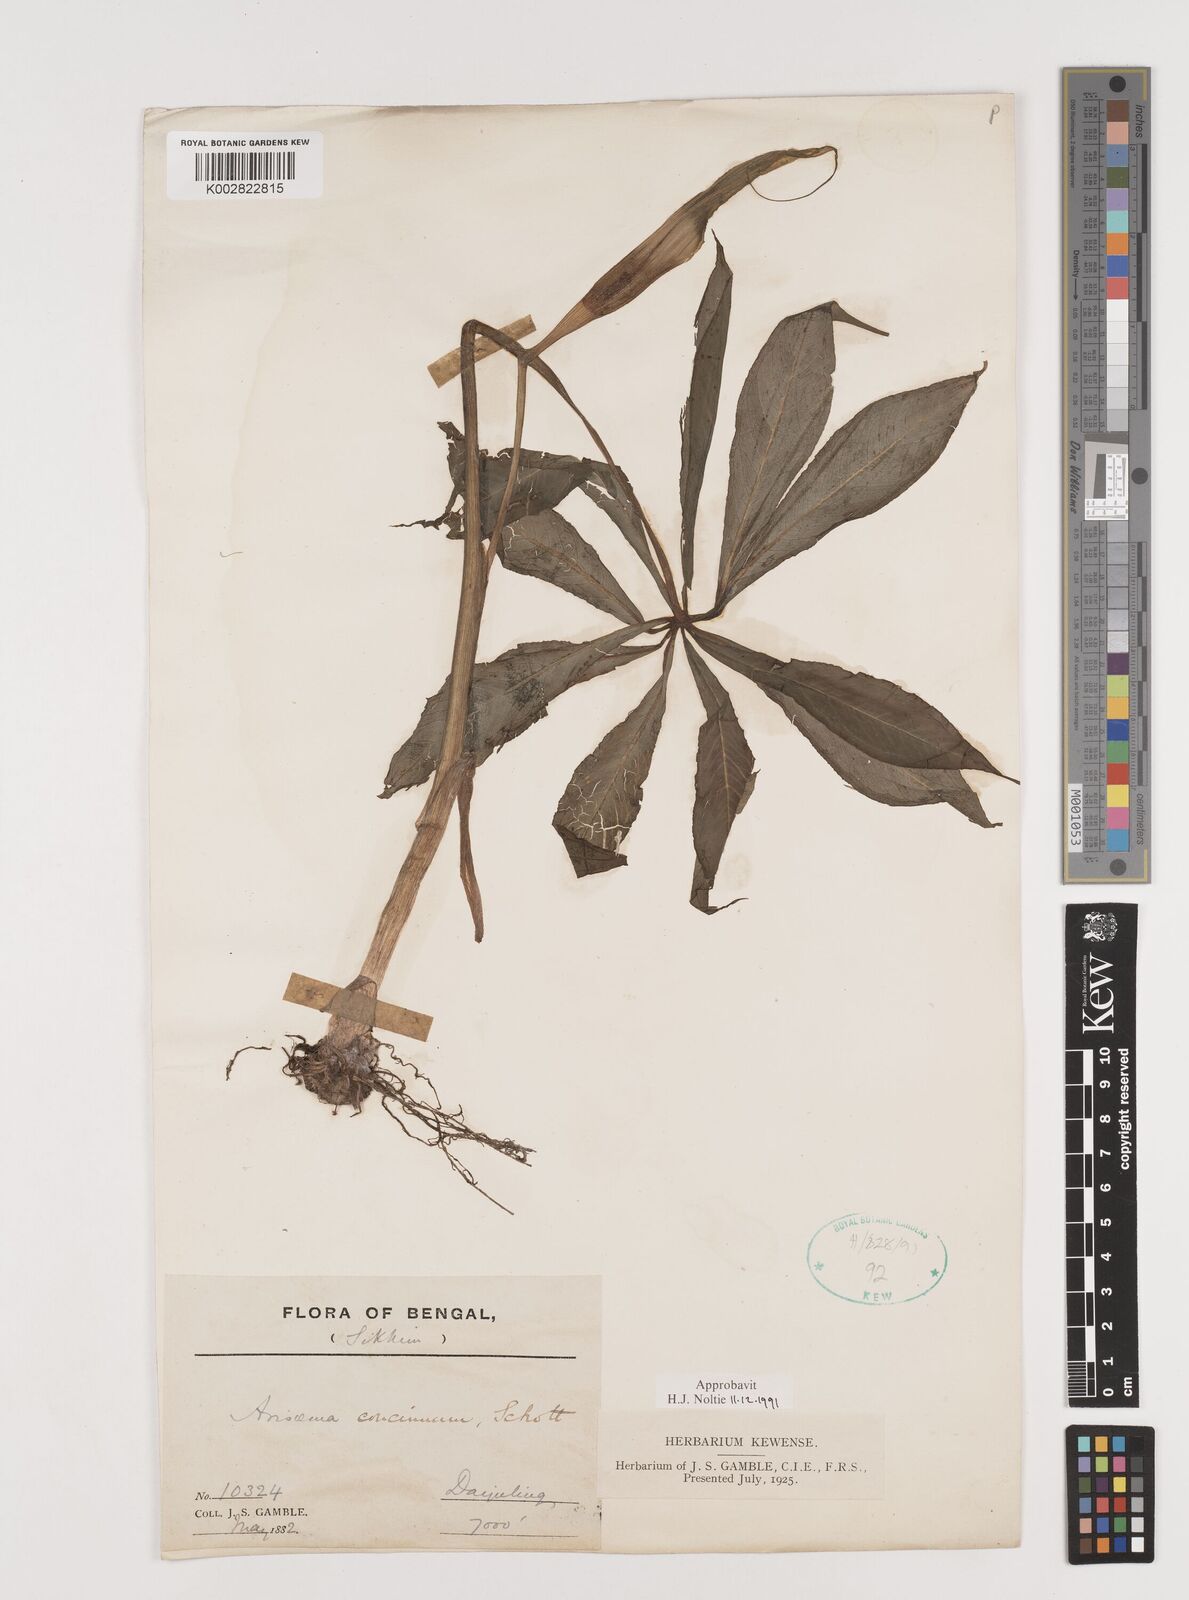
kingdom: Plantae
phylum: Tracheophyta
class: Liliopsida
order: Alismatales
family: Araceae
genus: Arisaema
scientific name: Arisaema concinnum
